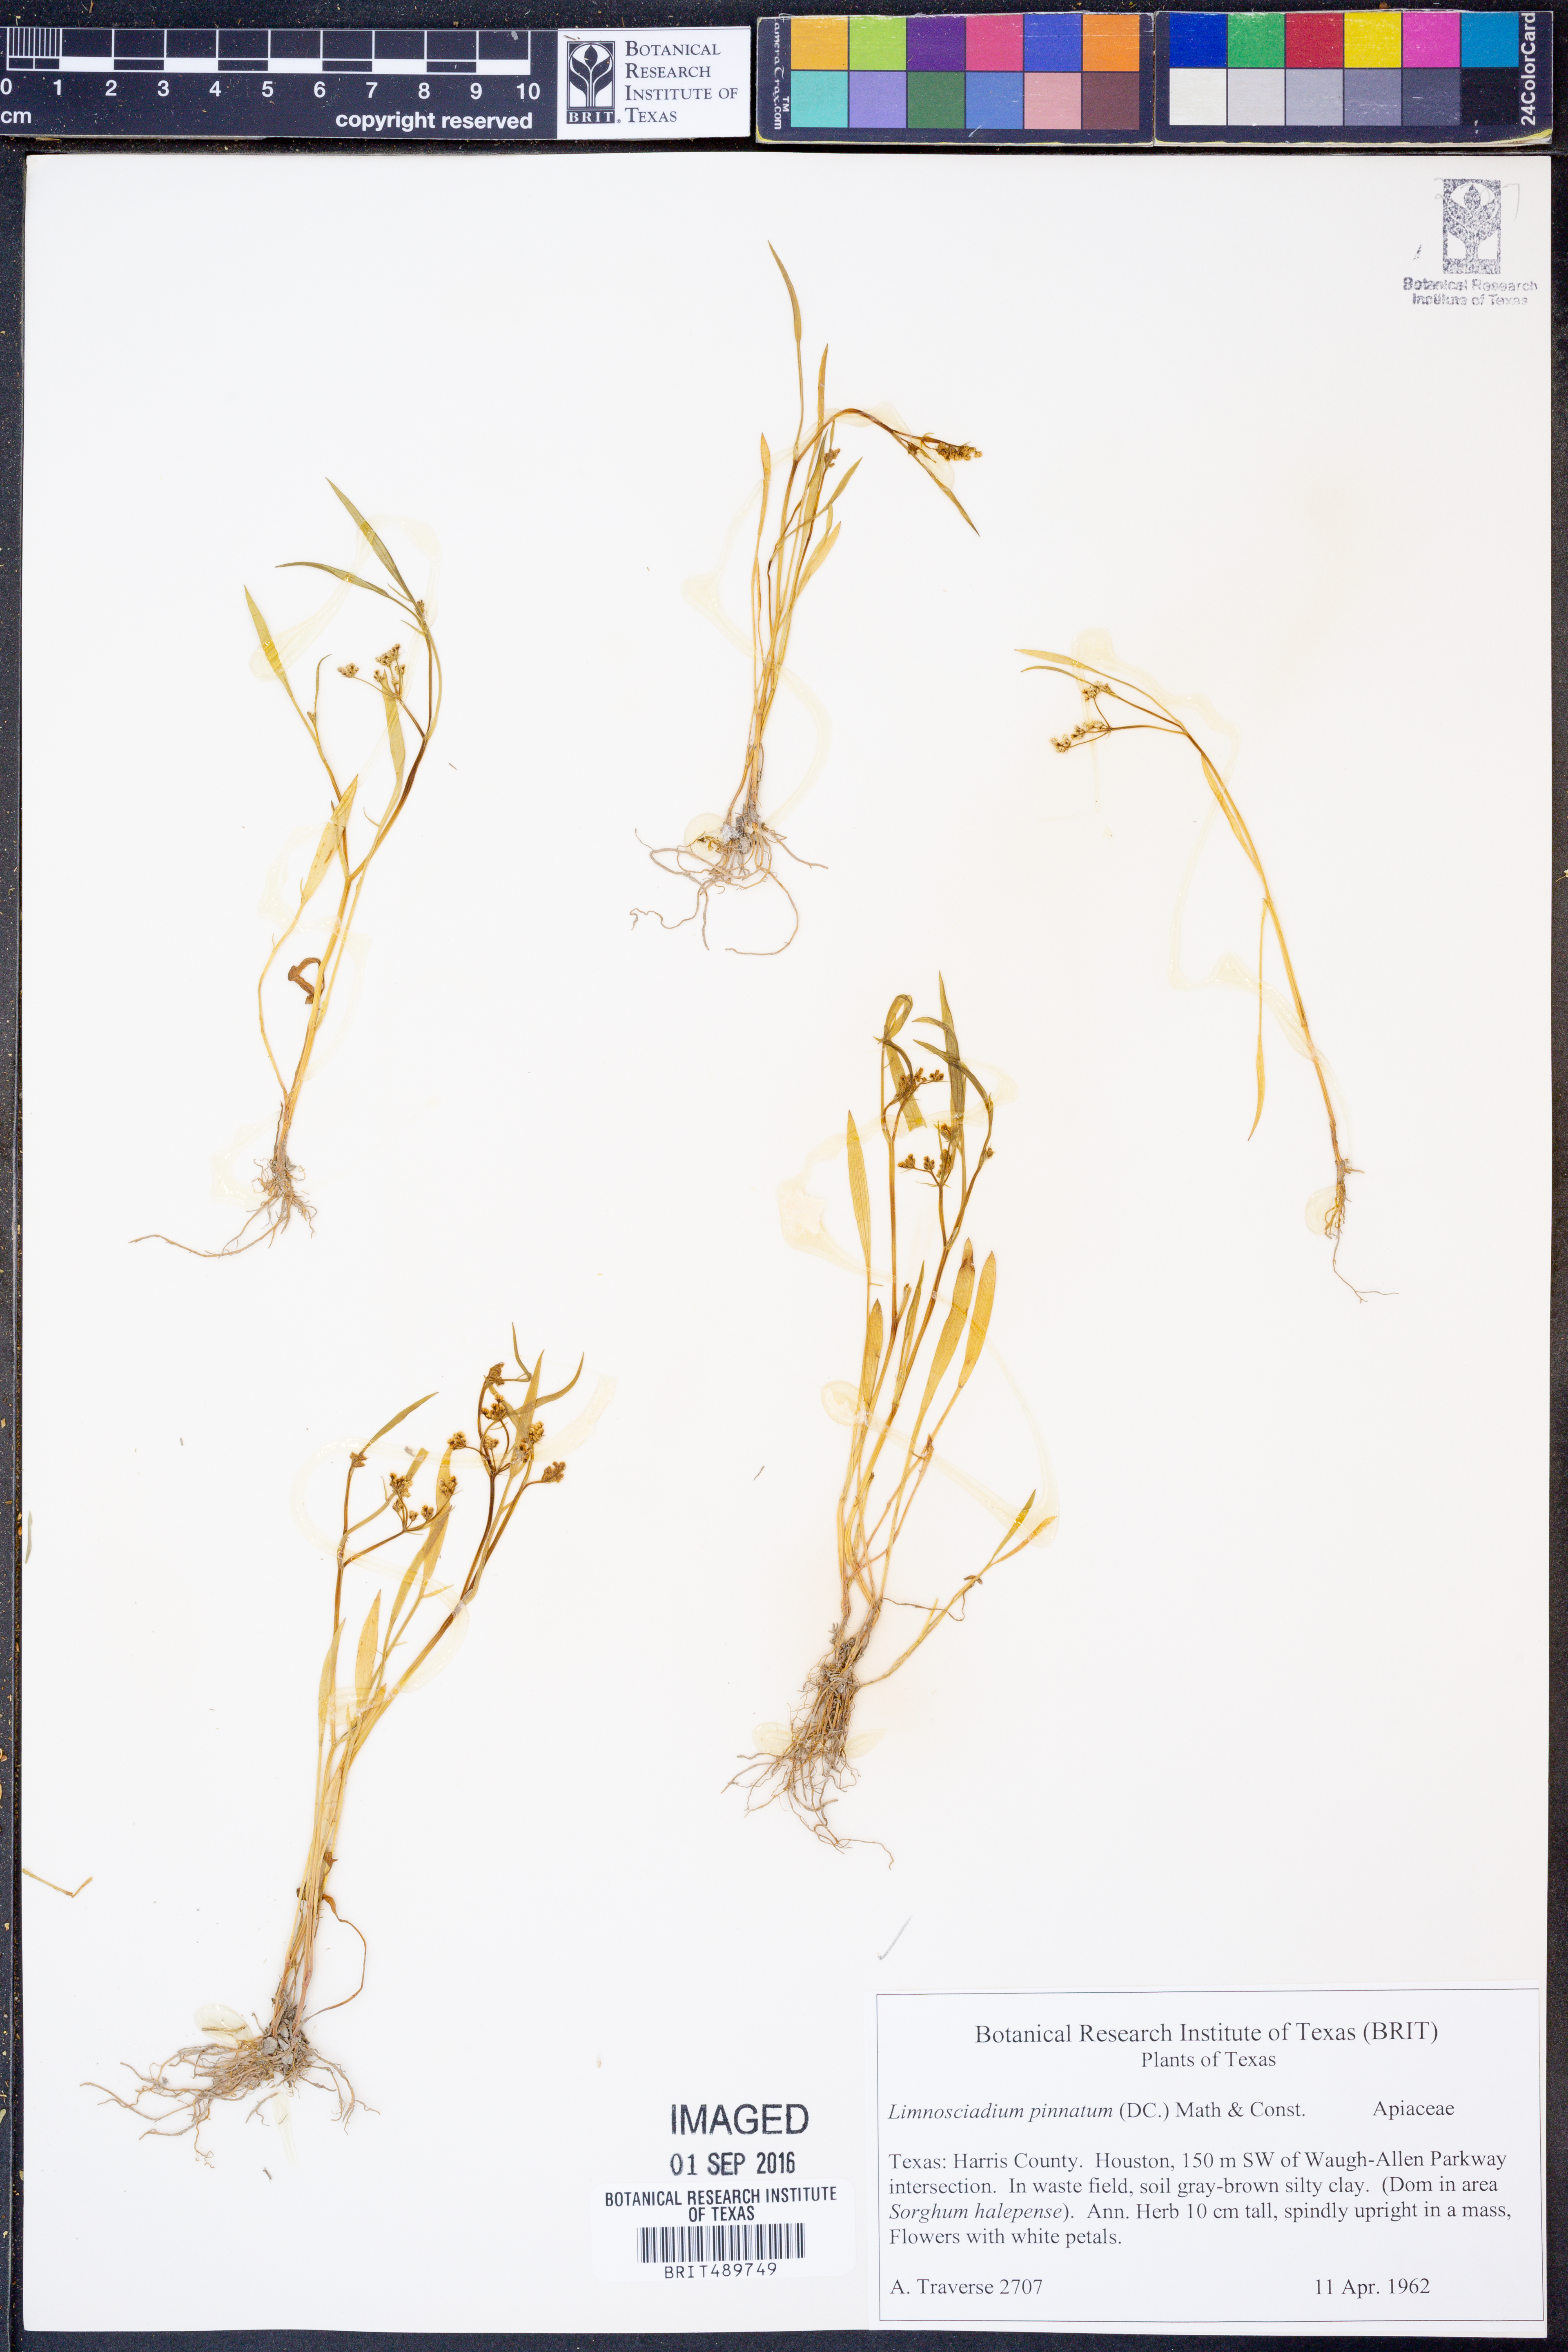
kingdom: Plantae
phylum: Tracheophyta
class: Magnoliopsida
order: Apiales
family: Apiaceae
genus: Limnosciadium
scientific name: Limnosciadium pinnatum
